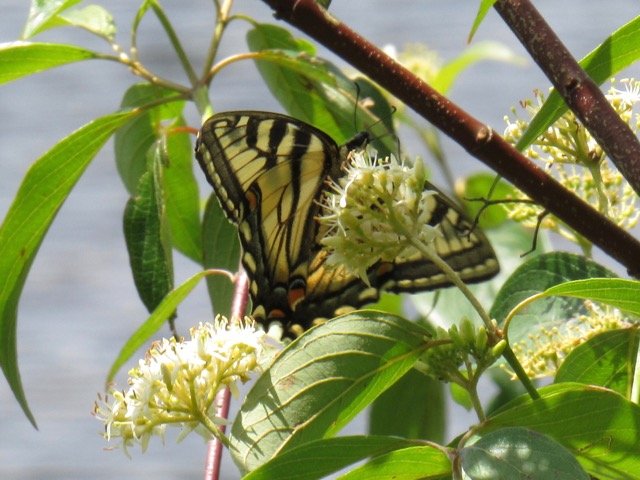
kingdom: Animalia
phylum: Arthropoda
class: Insecta
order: Lepidoptera
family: Papilionidae
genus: Pterourus
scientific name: Pterourus
